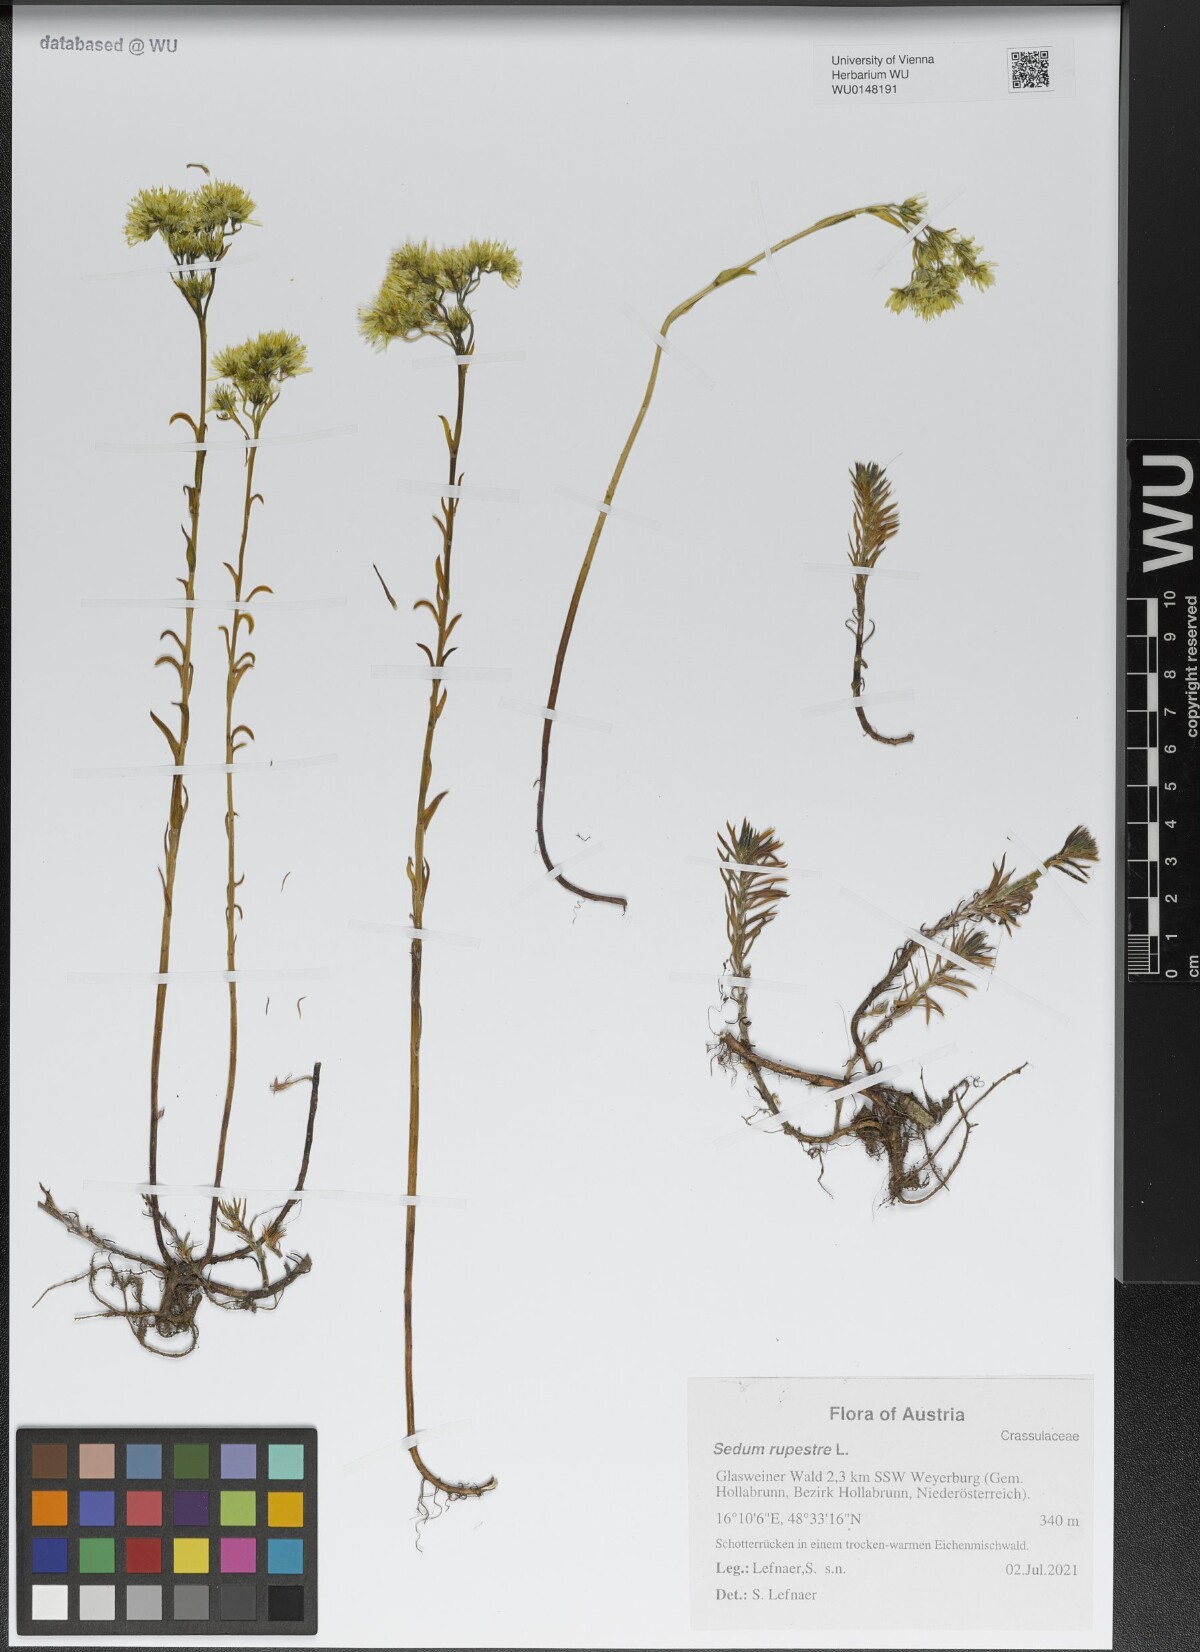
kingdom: Plantae
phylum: Tracheophyta
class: Magnoliopsida
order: Saxifragales
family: Crassulaceae
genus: Petrosedum
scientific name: Petrosedum rupestre
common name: Jenny's stonecrop
